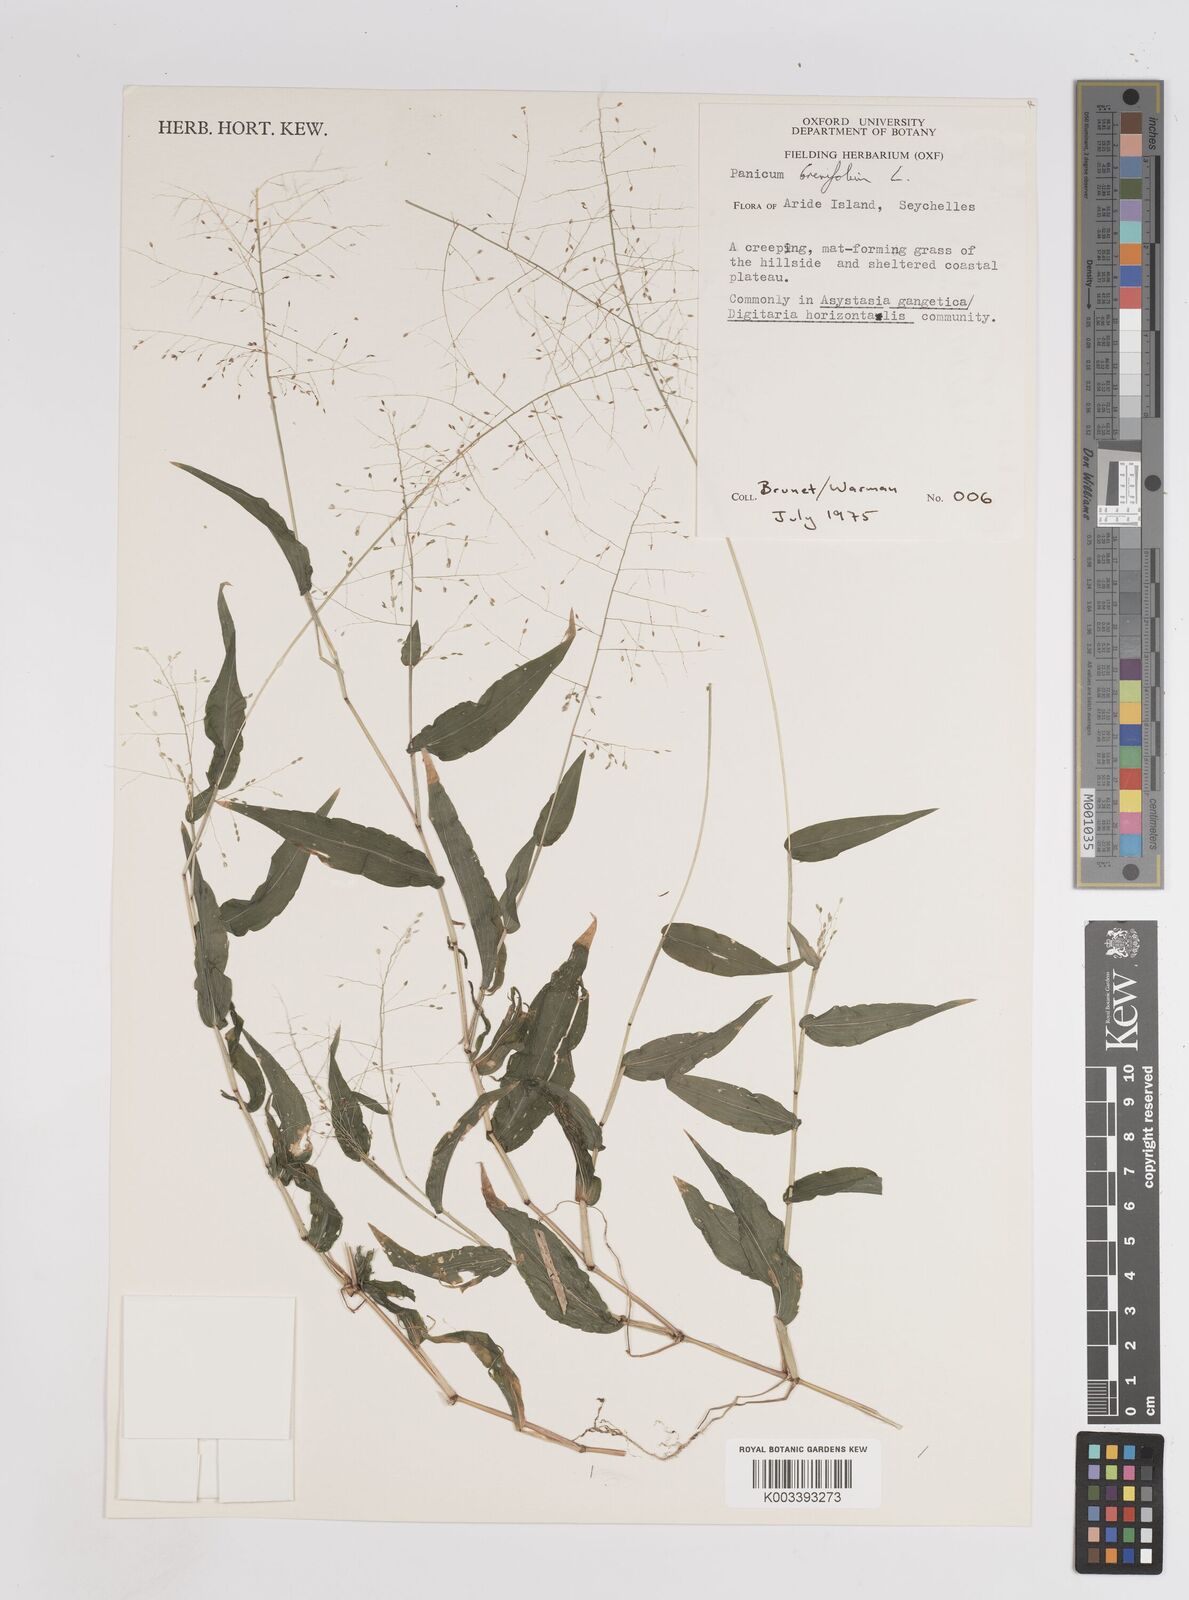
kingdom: Plantae
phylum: Tracheophyta
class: Liliopsida
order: Poales
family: Poaceae
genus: Panicum
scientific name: Panicum brevifolium
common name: Shortleaf panic grass
